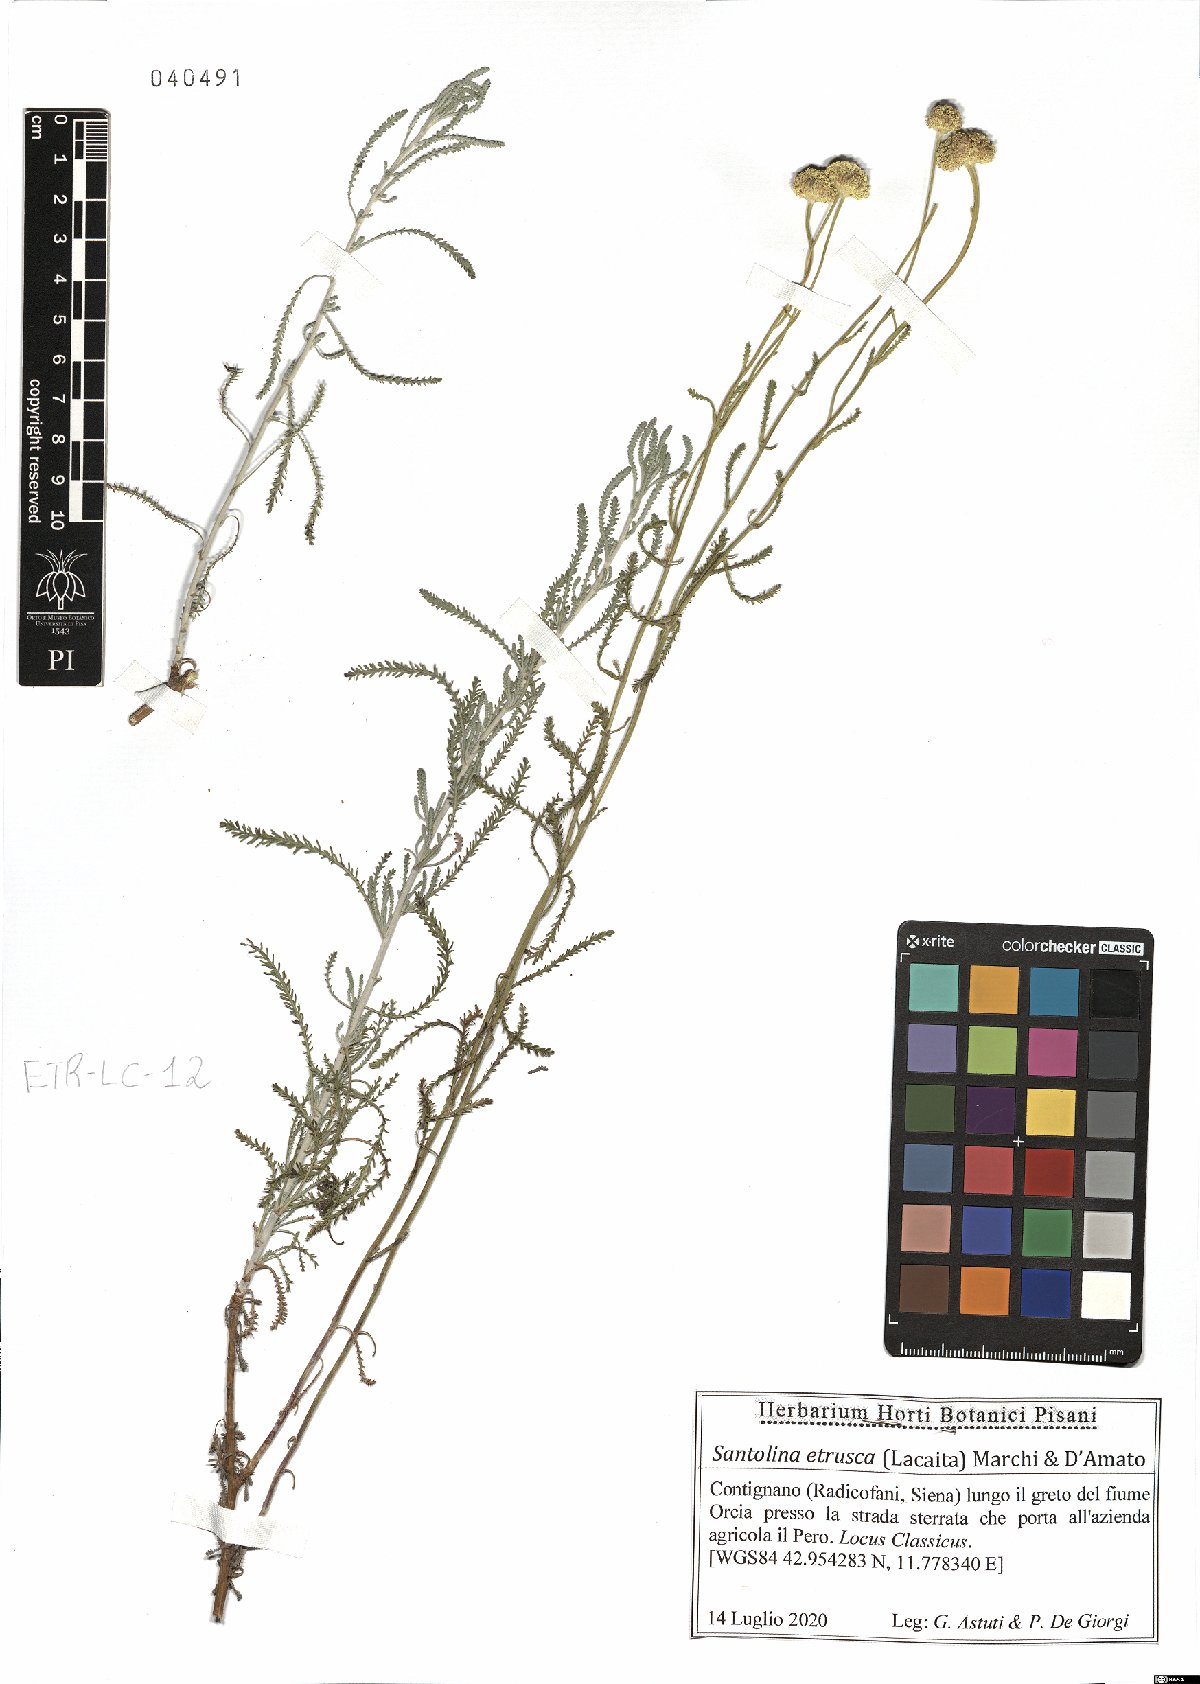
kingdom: Plantae
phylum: Tracheophyta
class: Magnoliopsida
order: Asterales
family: Asteraceae
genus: Santolina
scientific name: Santolina etrusca
